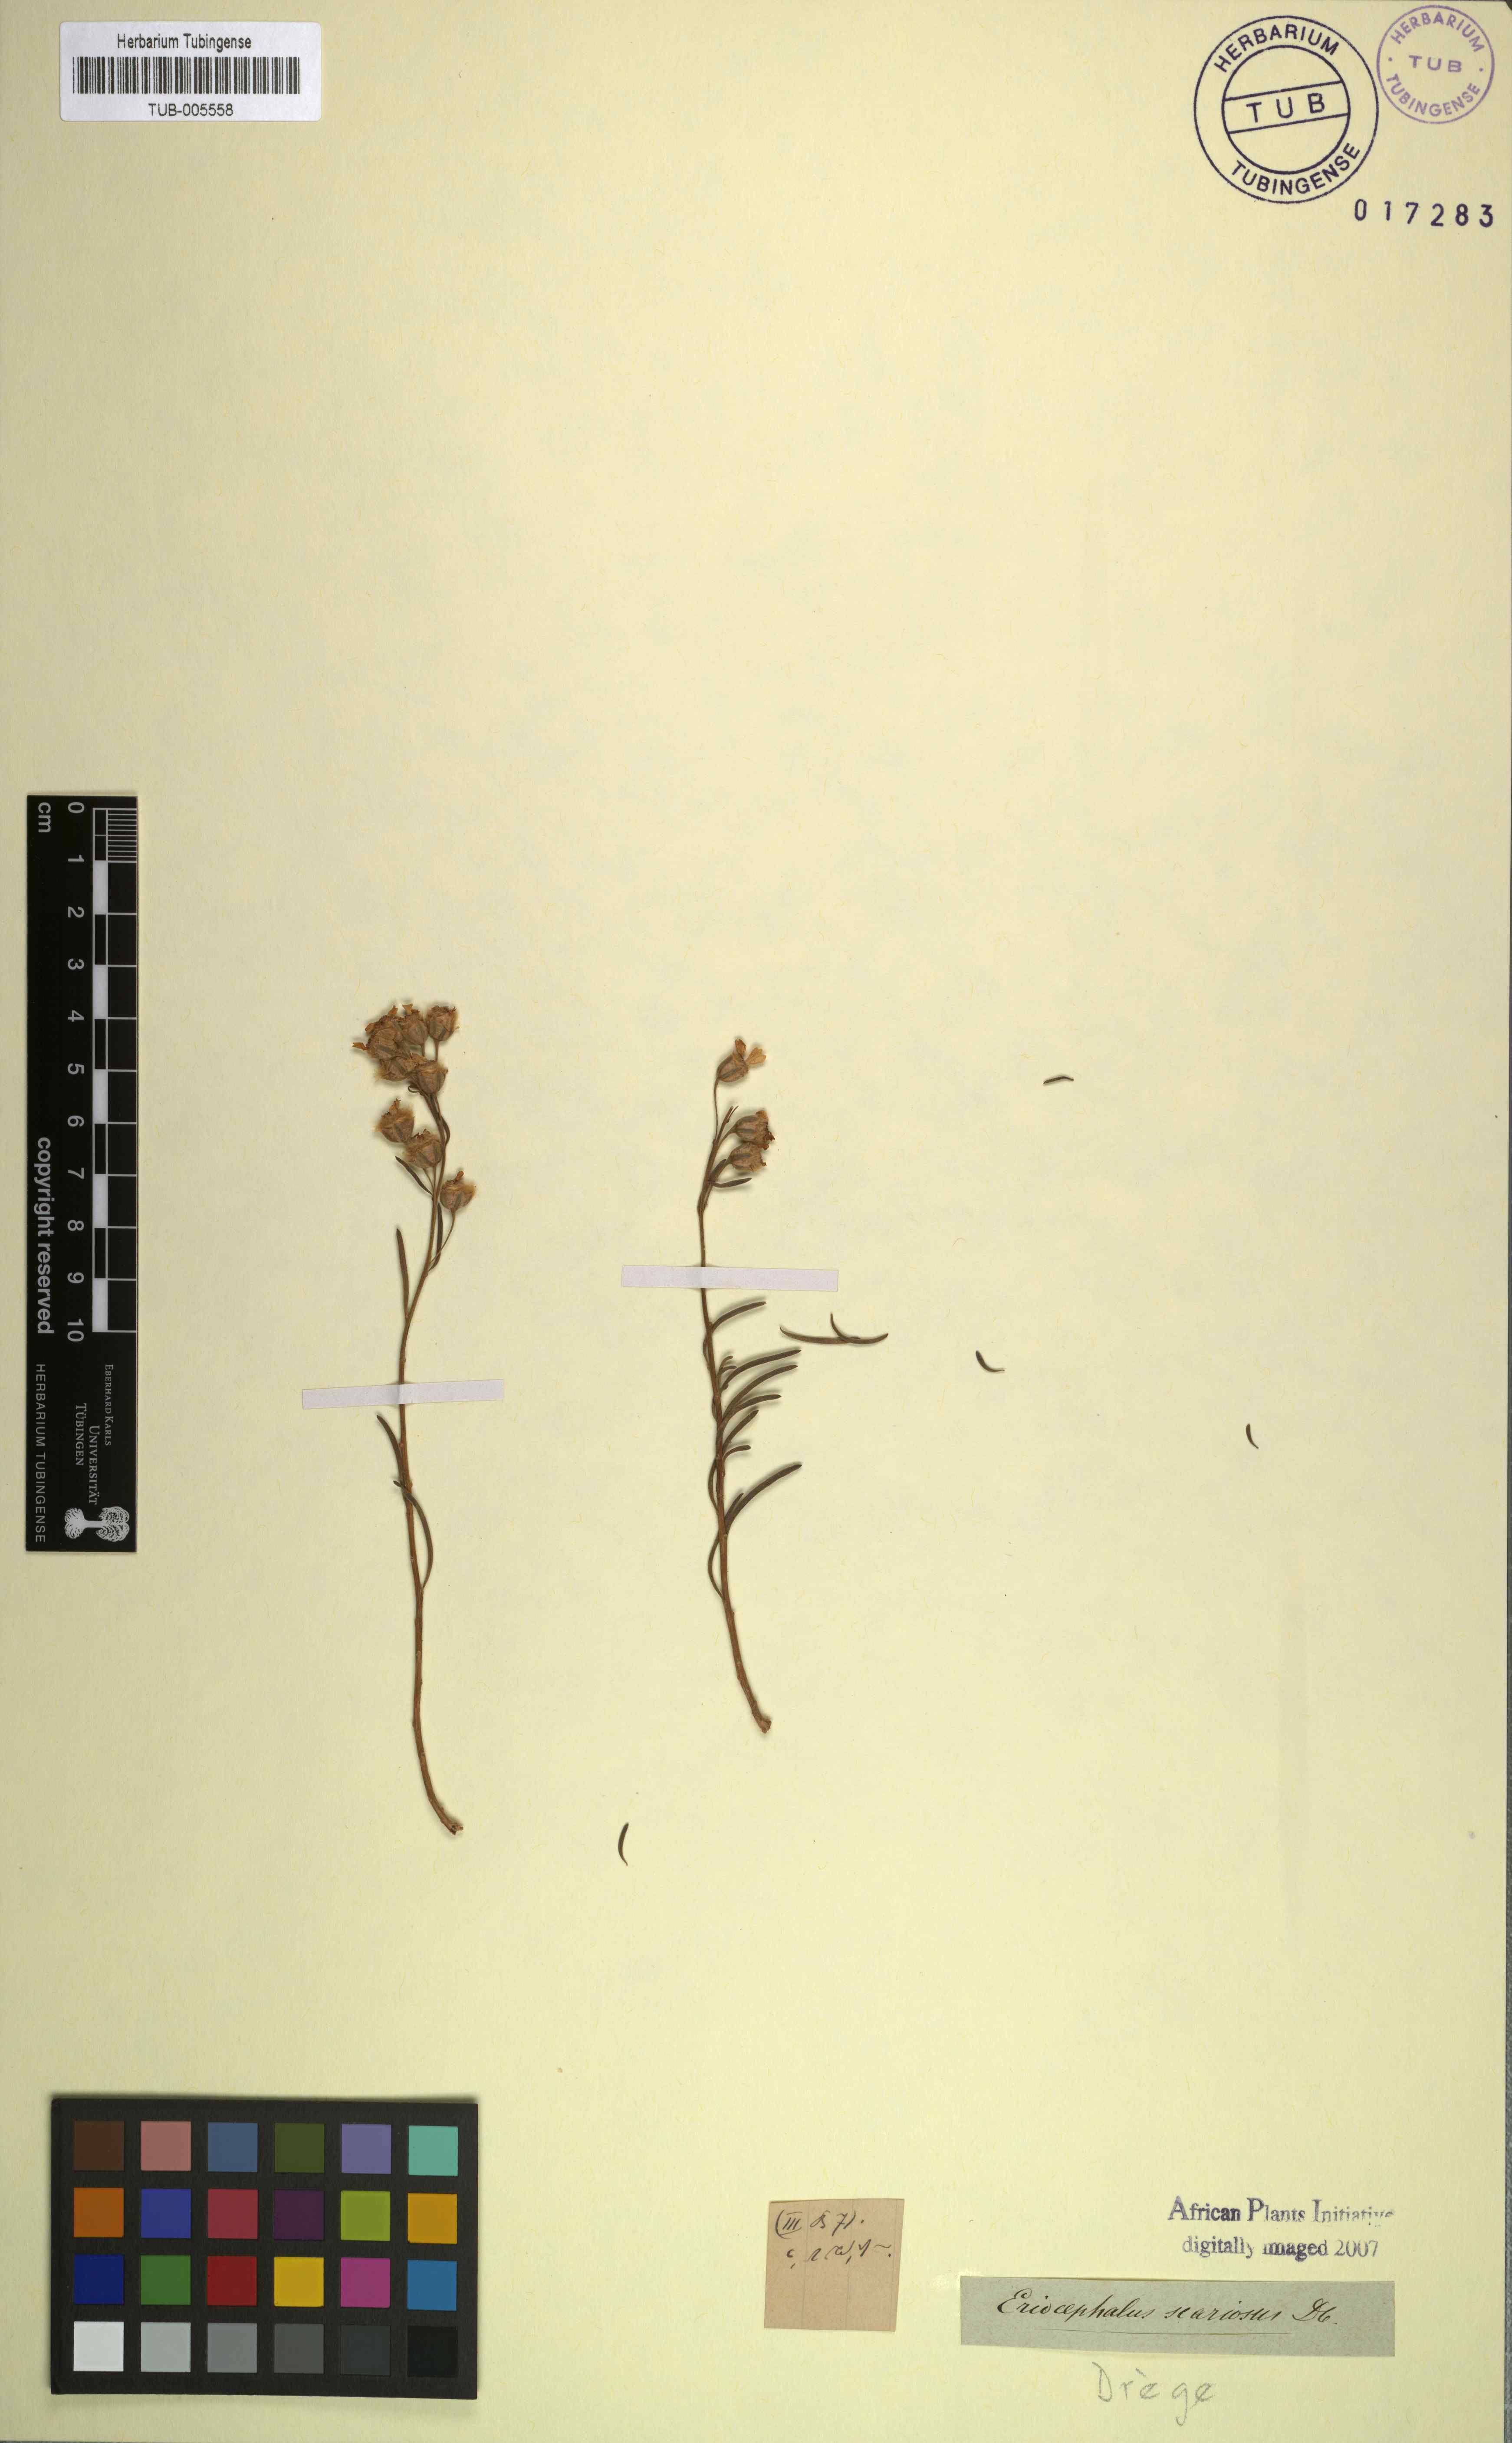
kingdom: Plantae
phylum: Tracheophyta
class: Magnoliopsida
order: Asterales
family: Asteraceae
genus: Eriocephalus
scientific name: Eriocephalus scariosus
